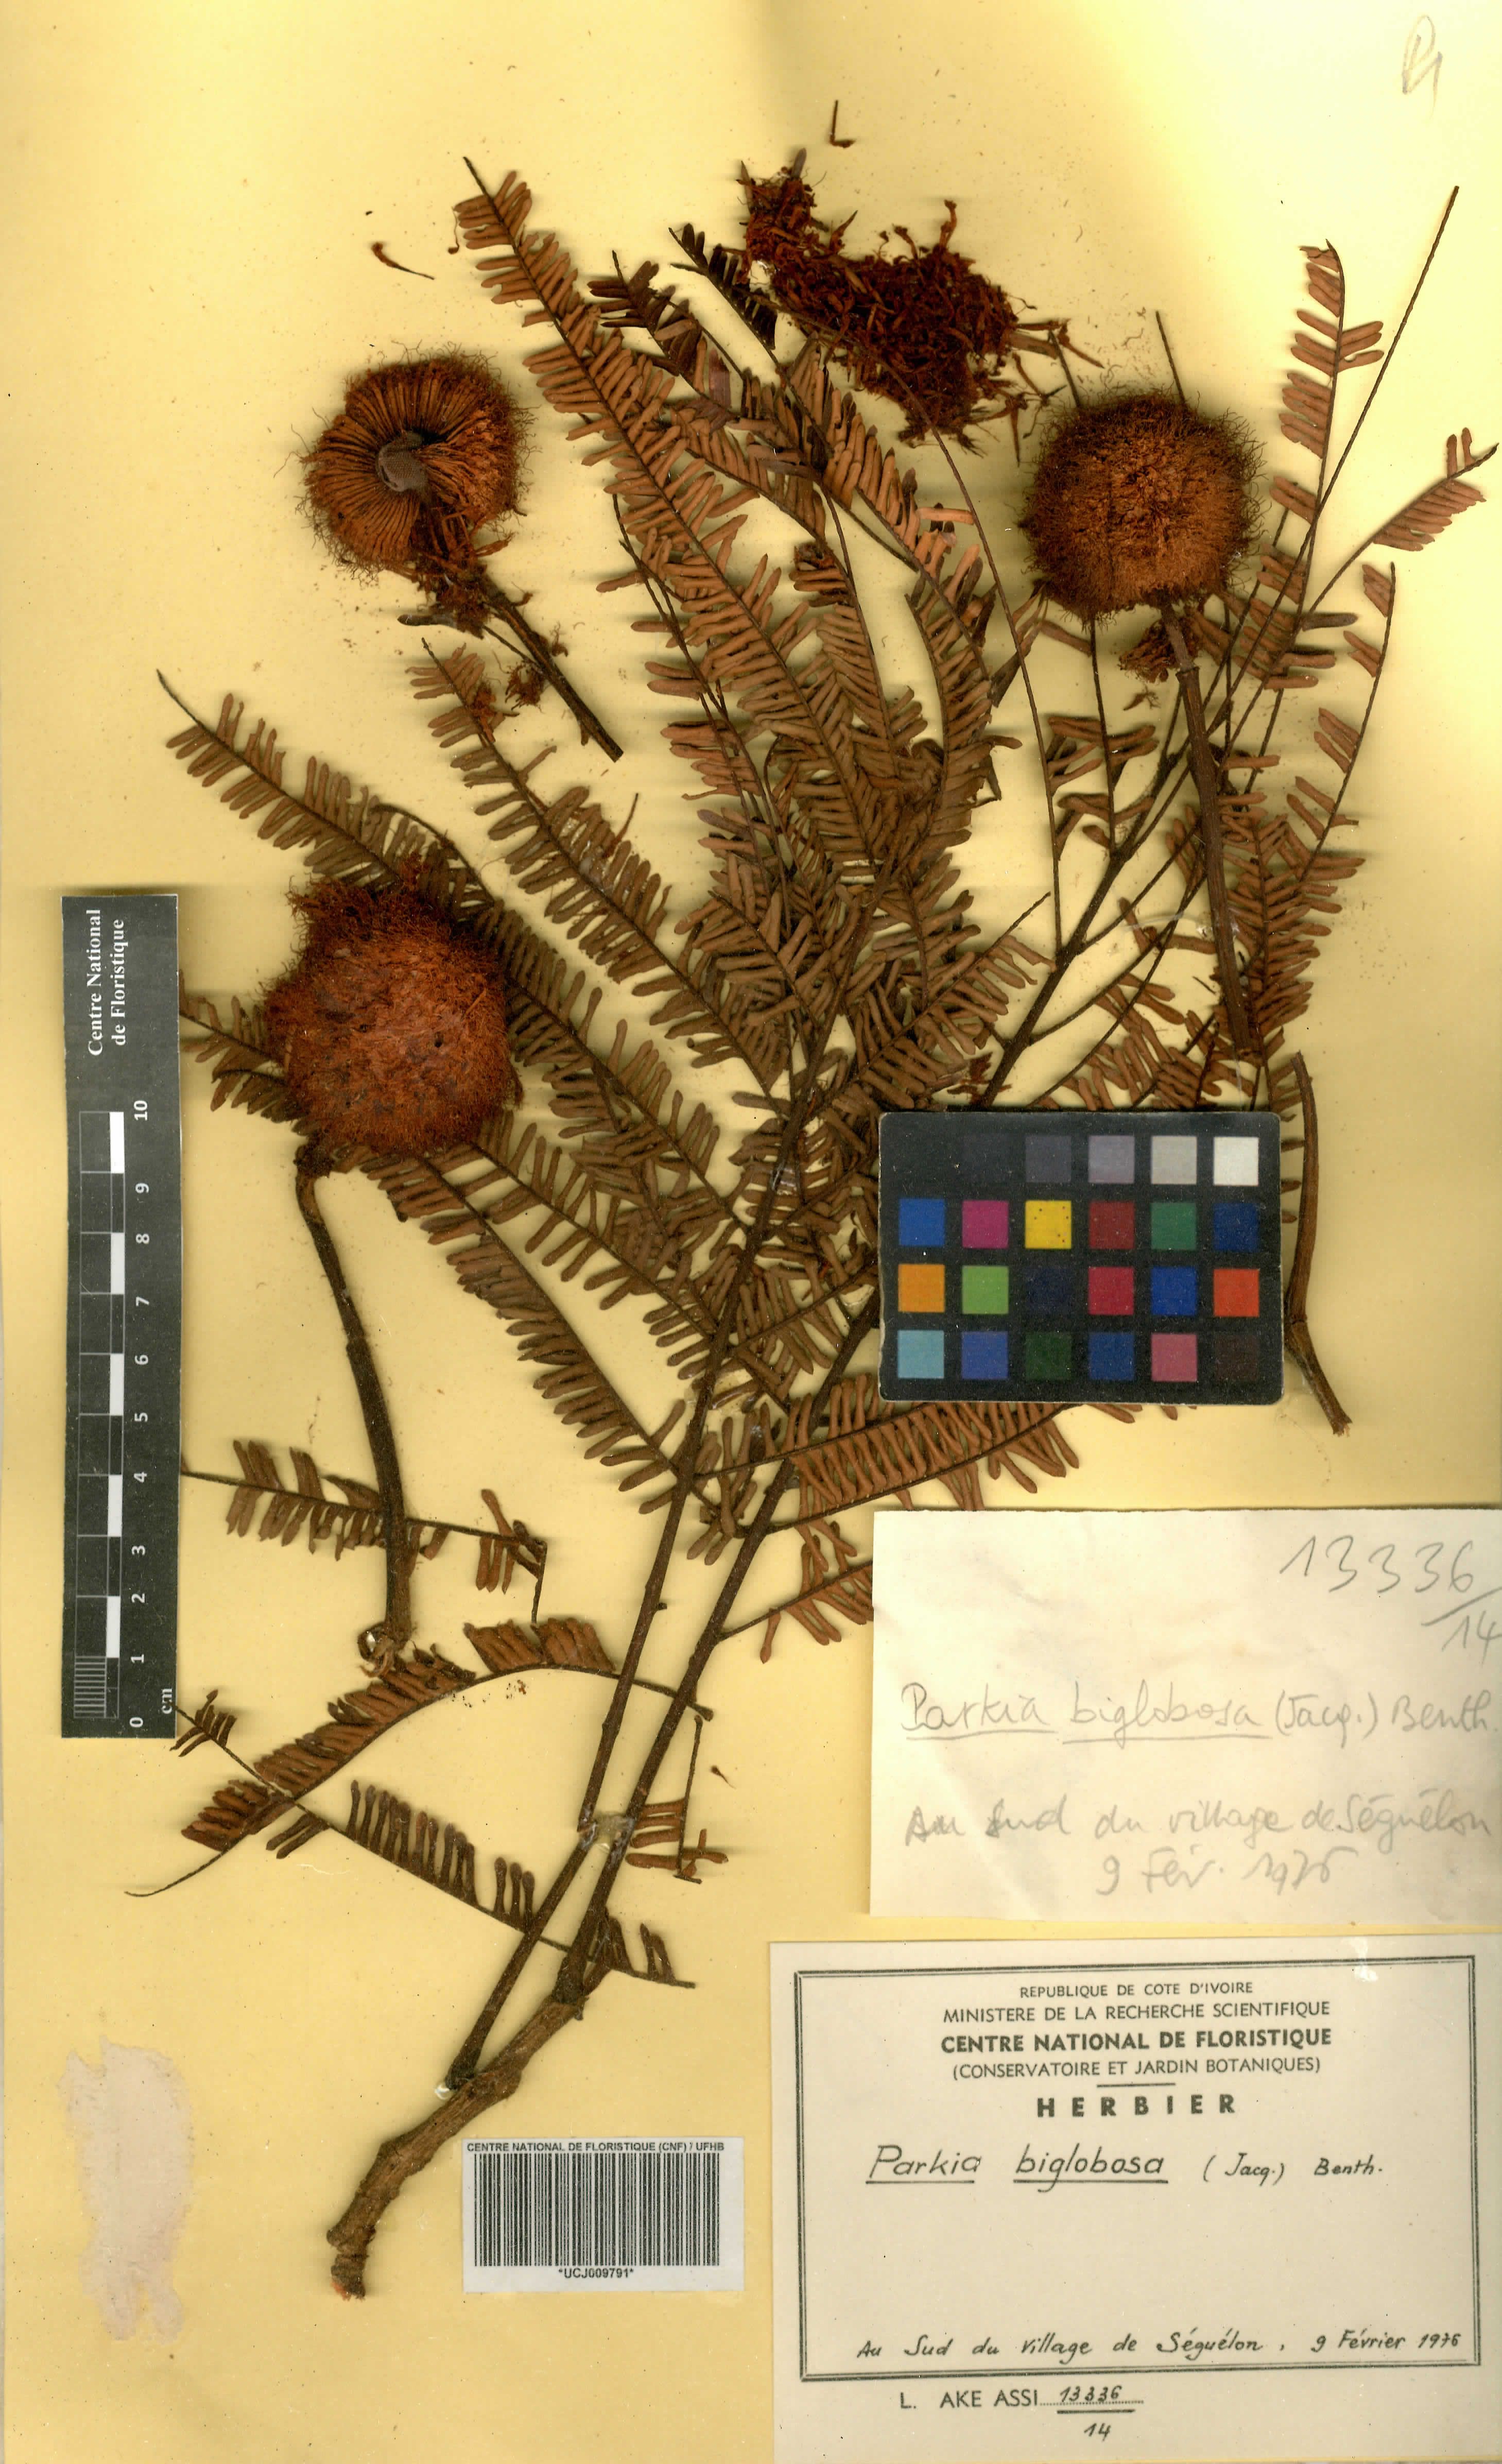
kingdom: Plantae
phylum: Tracheophyta
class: Magnoliopsida
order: Fabales
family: Fabaceae
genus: Parkia
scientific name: Parkia timoriana
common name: Legume
